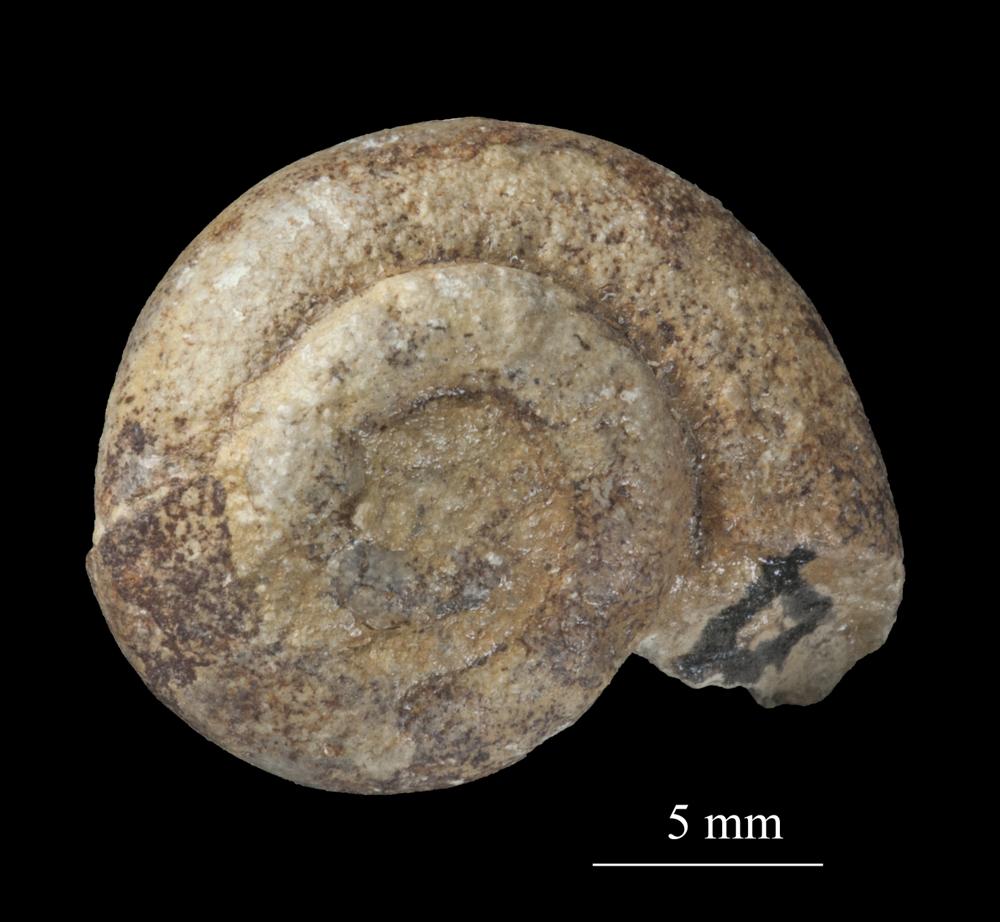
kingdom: Animalia
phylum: Mollusca
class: Gastropoda
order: Pleurotomariida
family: Phymatopleuridae
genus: Worthenia
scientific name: Worthenia
